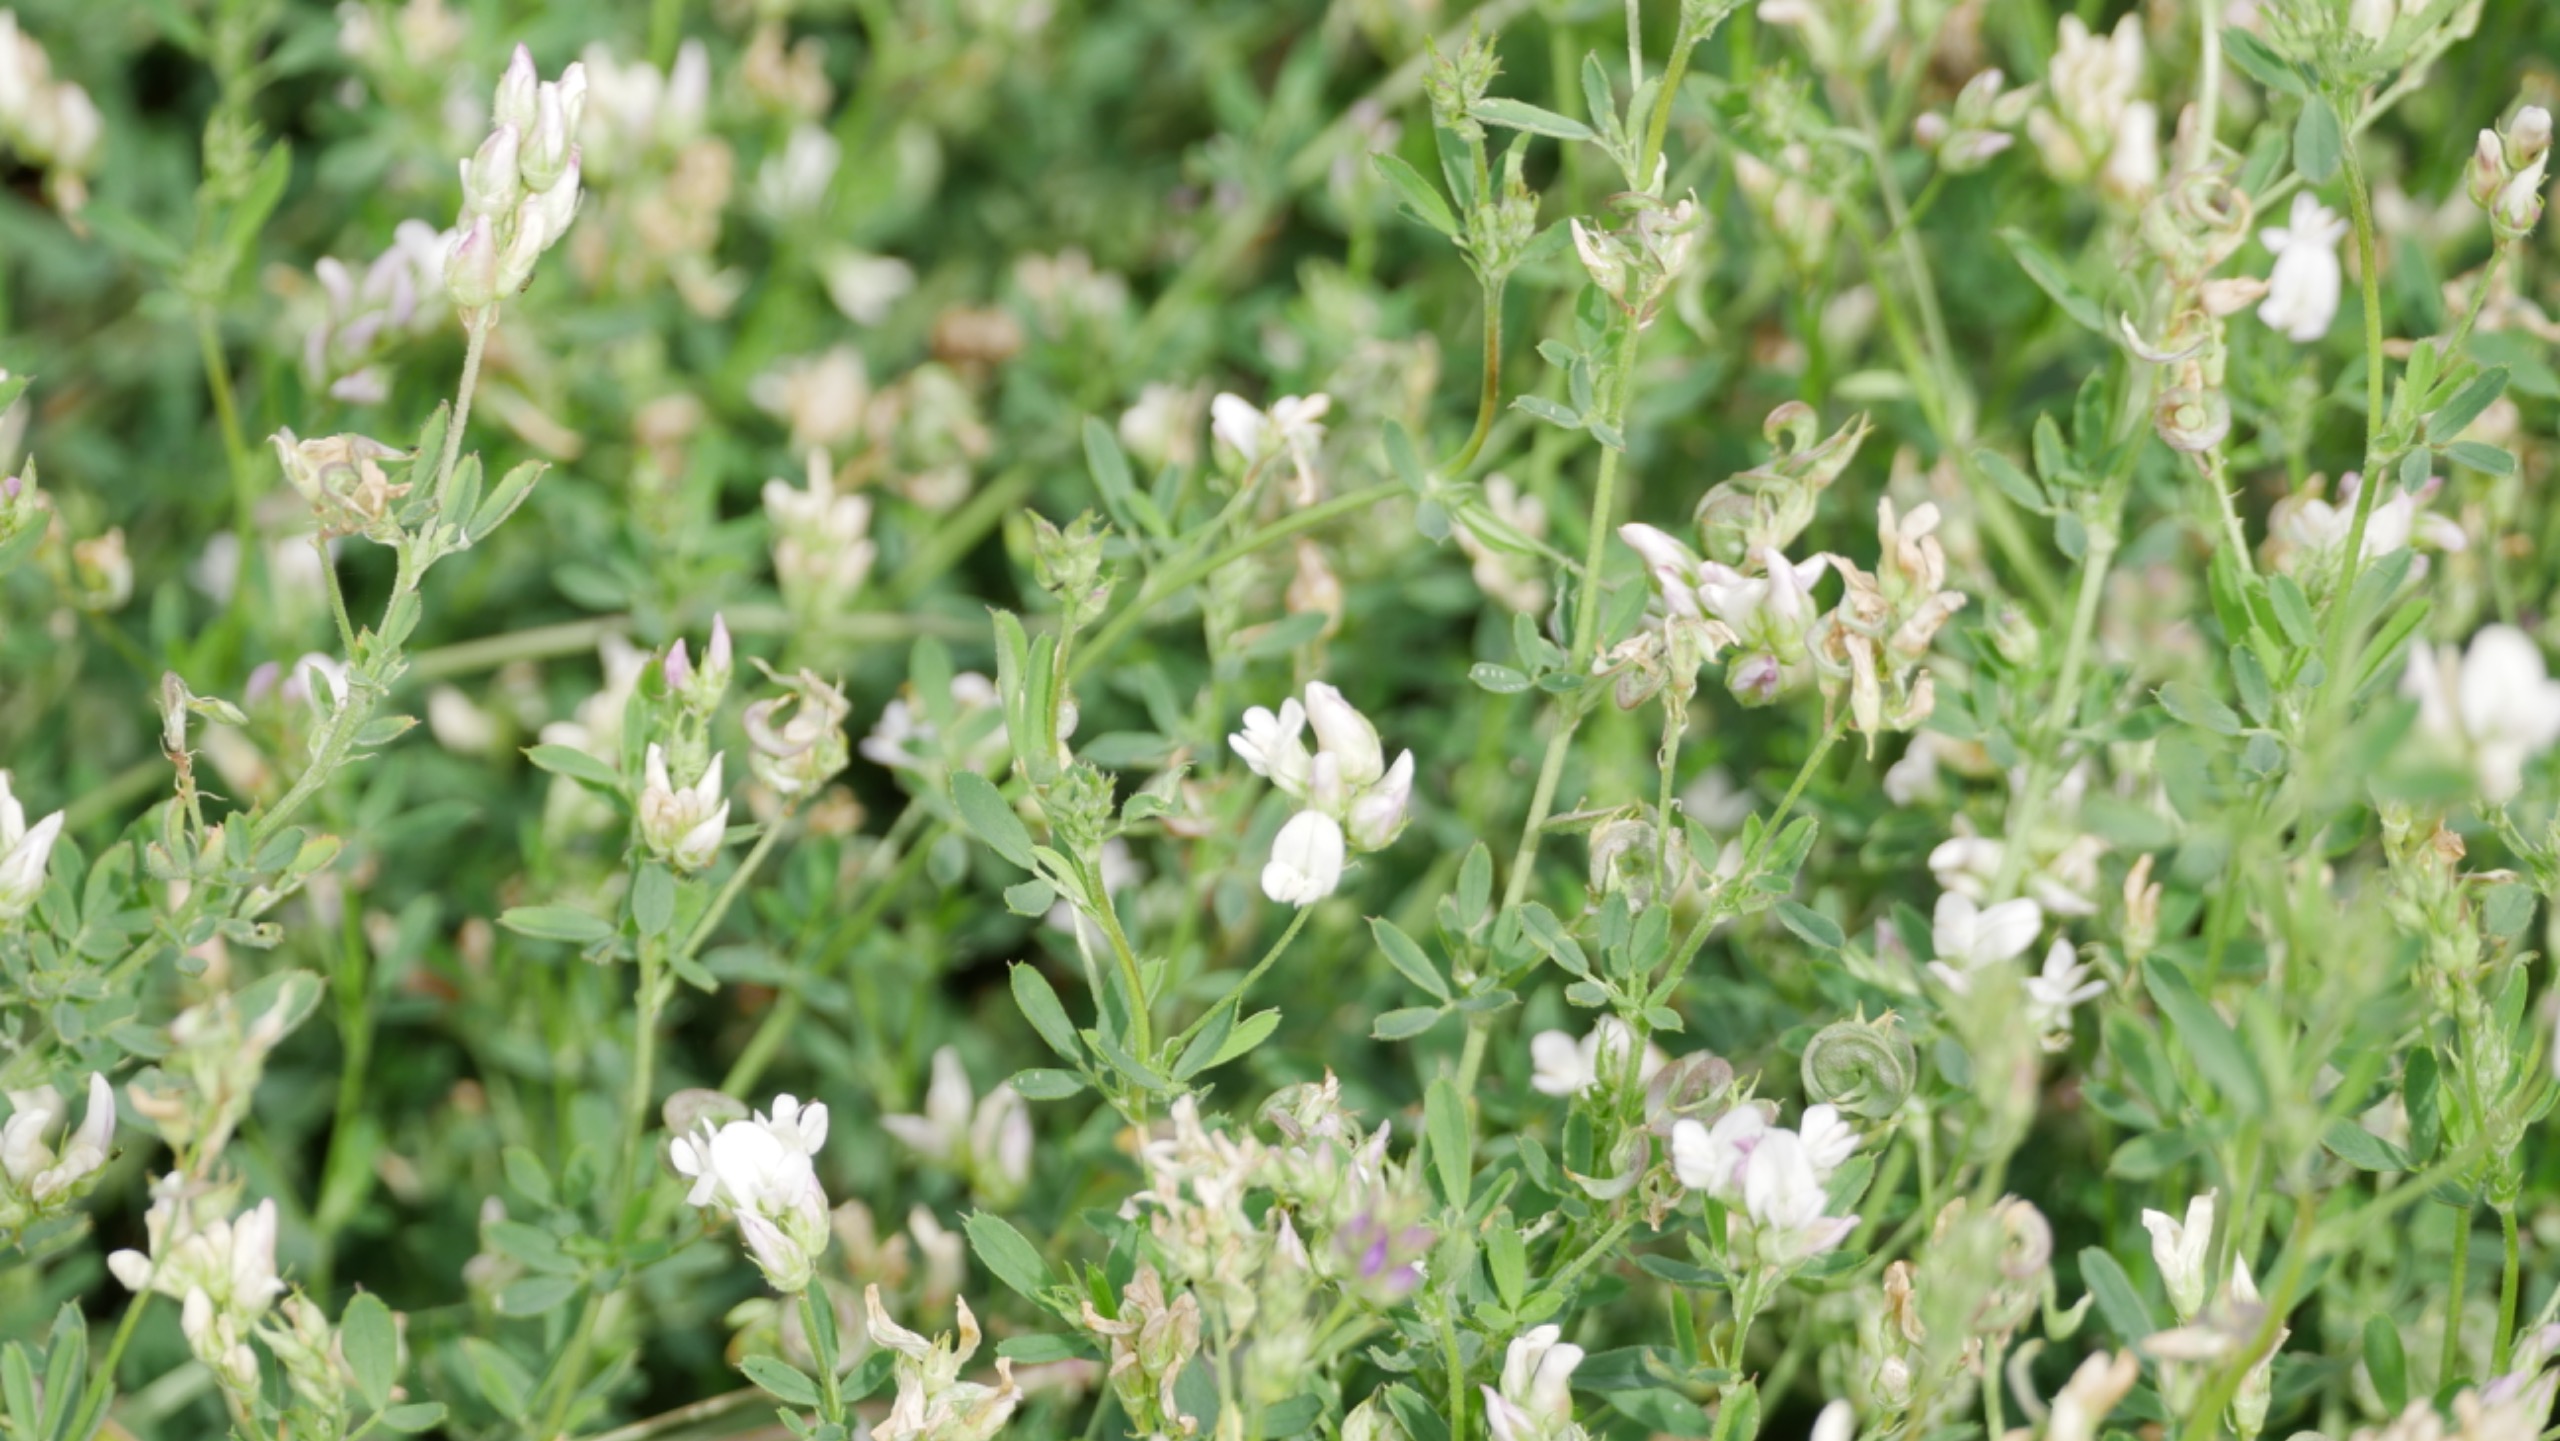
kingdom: Plantae
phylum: Tracheophyta
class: Magnoliopsida
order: Fabales
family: Fabaceae
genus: Medicago
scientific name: Medicago sativa
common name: Lucerne
